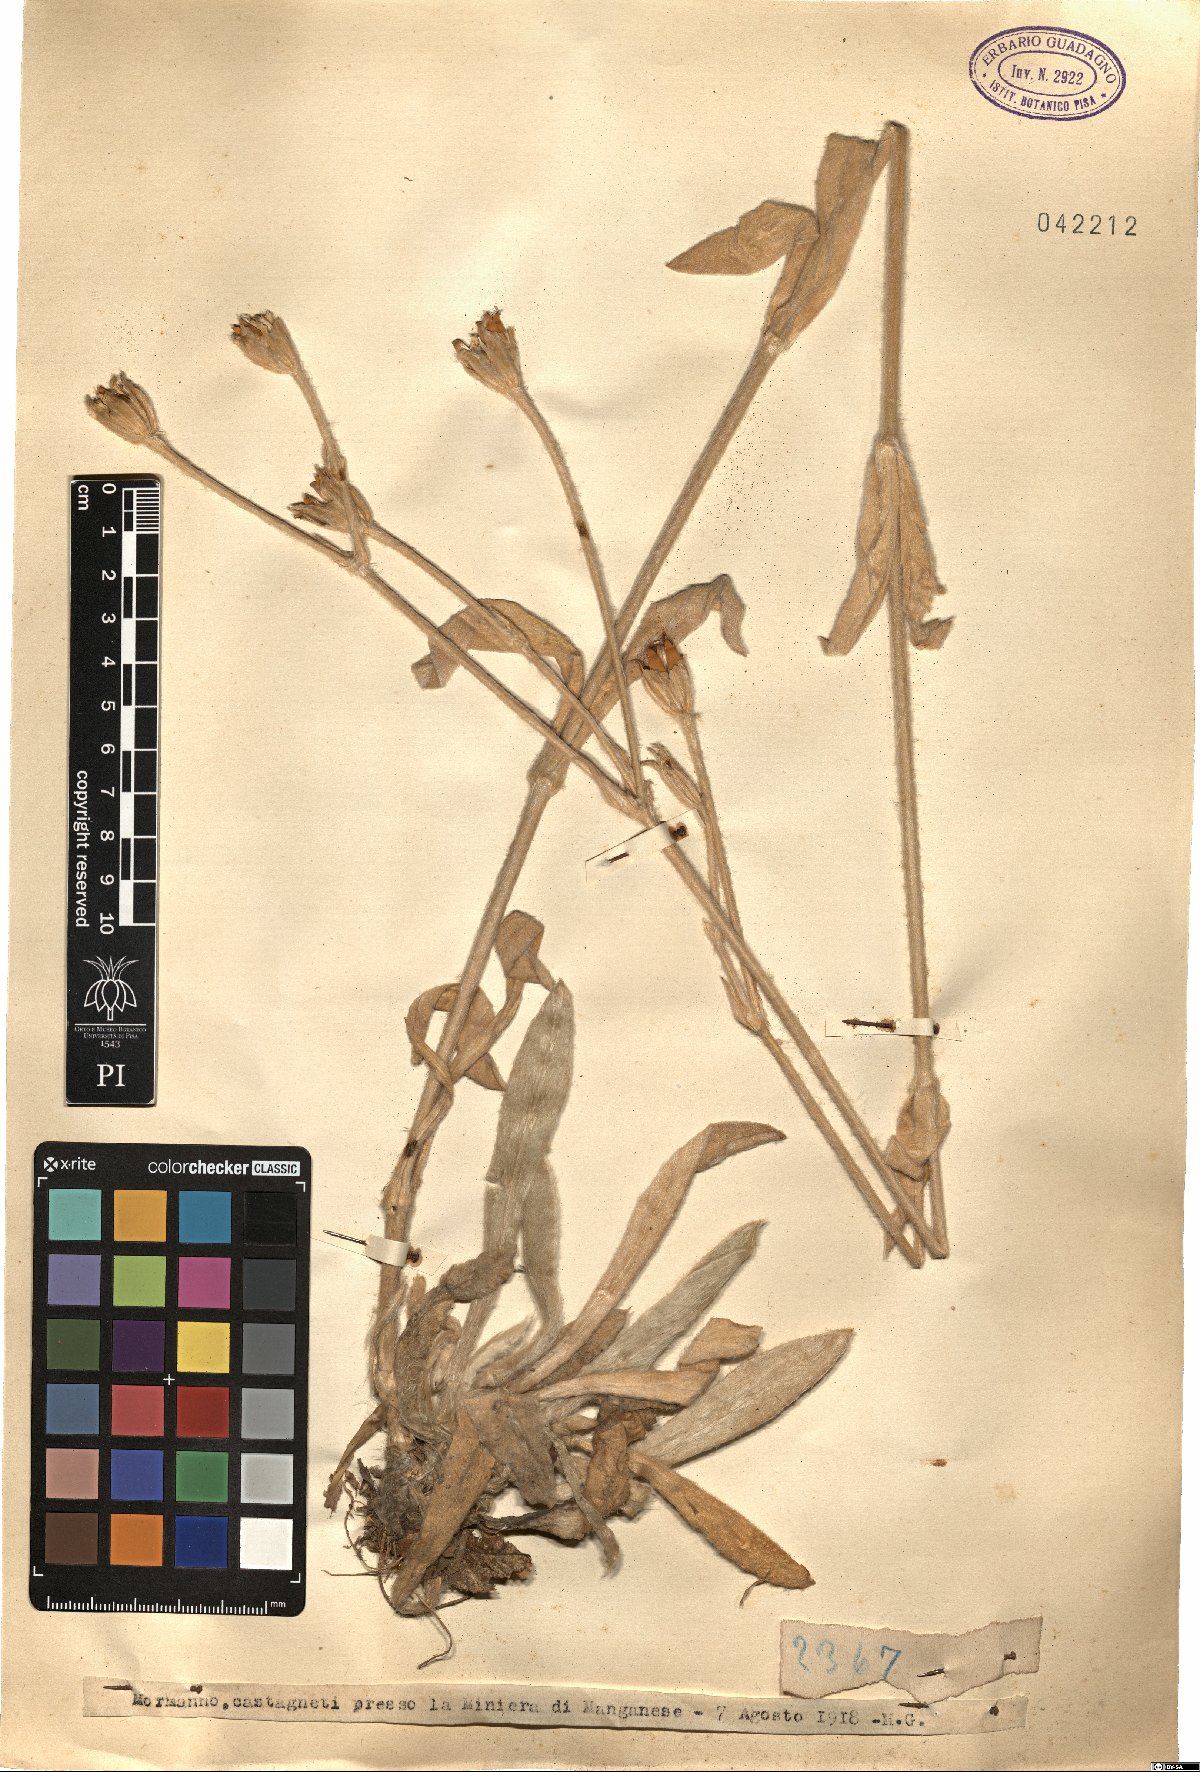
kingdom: Animalia
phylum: Cnidaria
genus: Cucubalus
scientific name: Cucubalus
